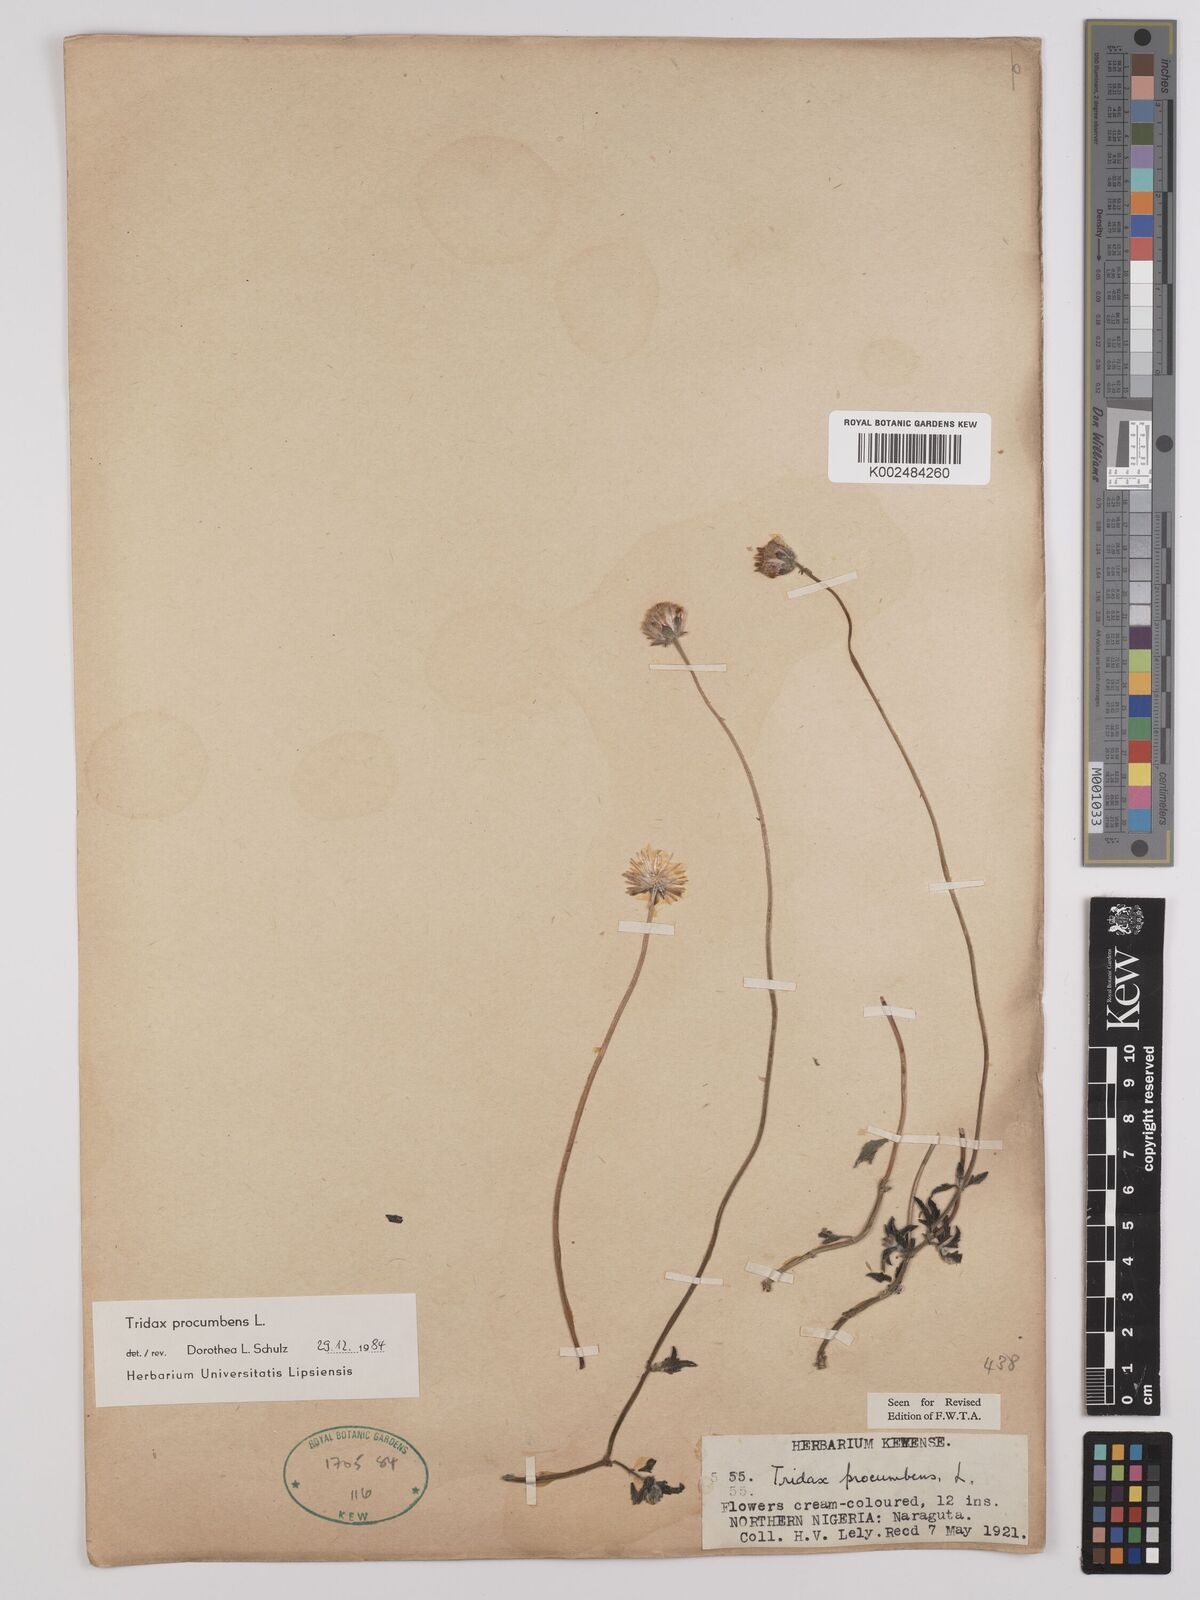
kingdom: Plantae
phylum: Tracheophyta
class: Magnoliopsida
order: Asterales
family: Asteraceae
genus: Tridax
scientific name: Tridax procumbens
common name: Coatbuttons
